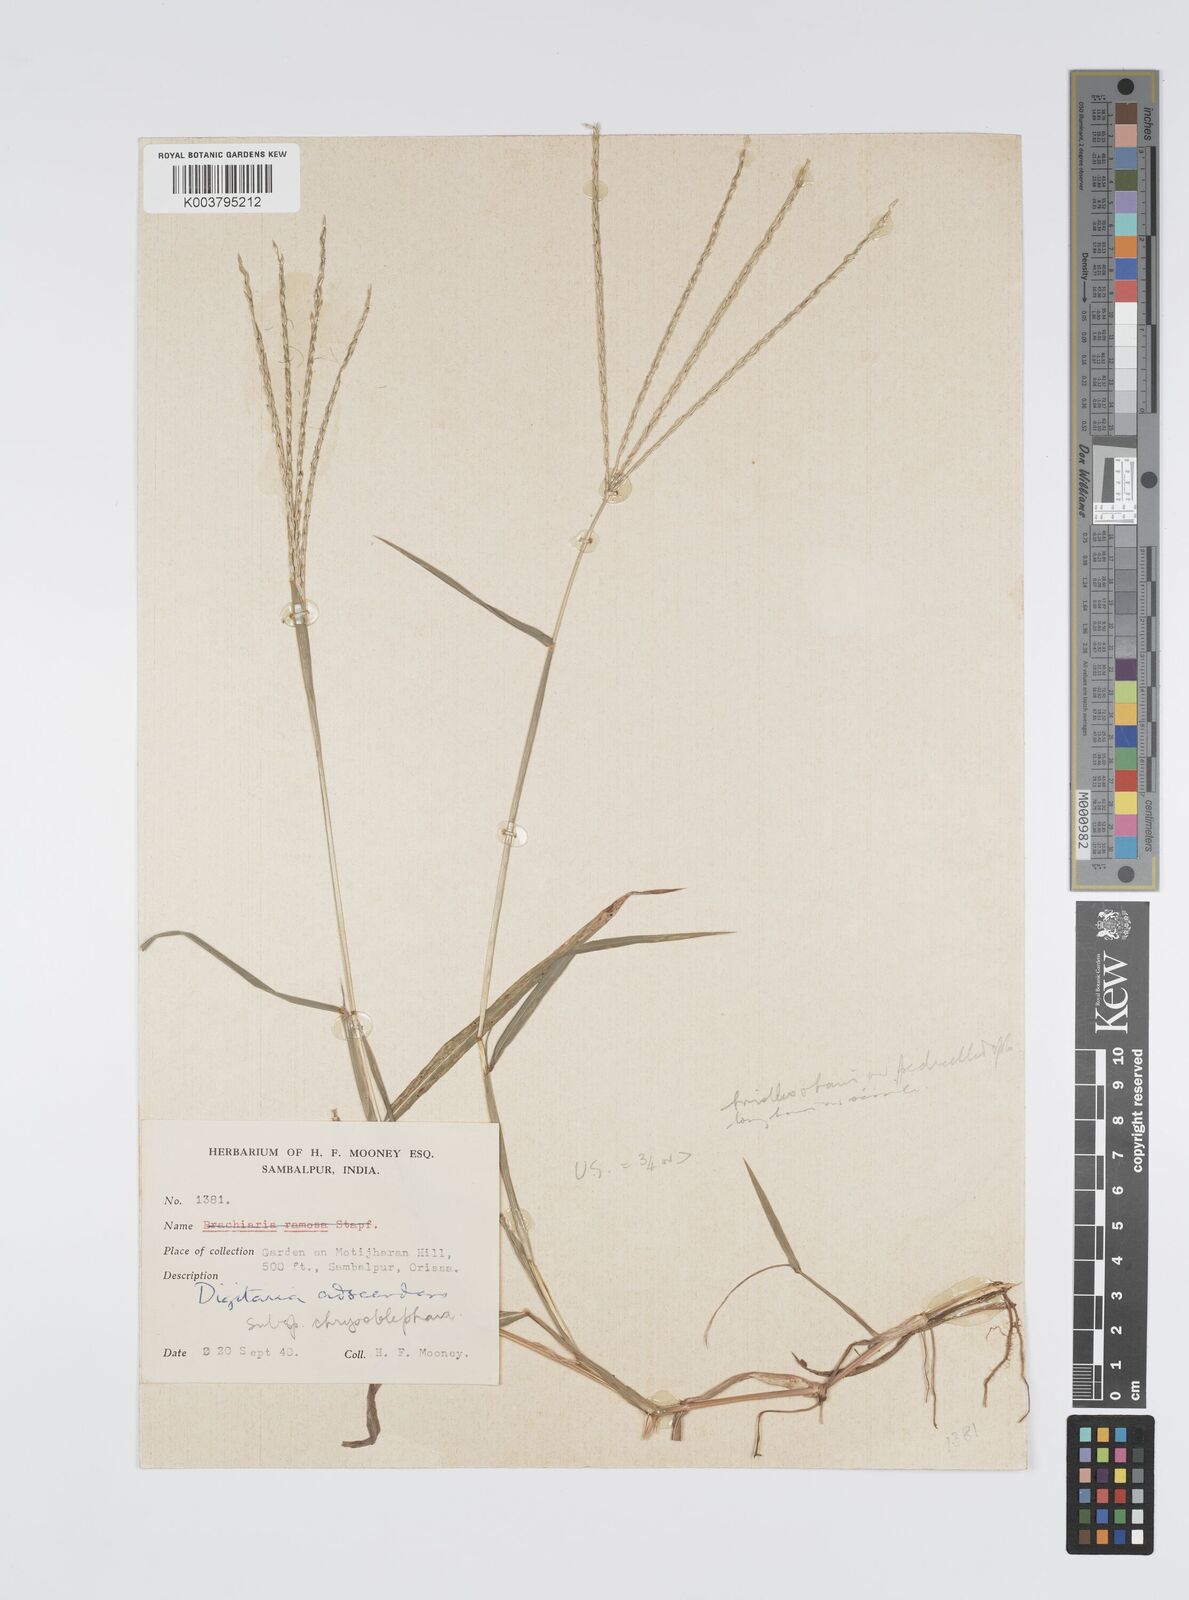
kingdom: Plantae
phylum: Tracheophyta
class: Liliopsida
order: Poales
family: Poaceae
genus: Digitaria
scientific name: Digitaria ciliaris
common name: Tropical finger-grass
